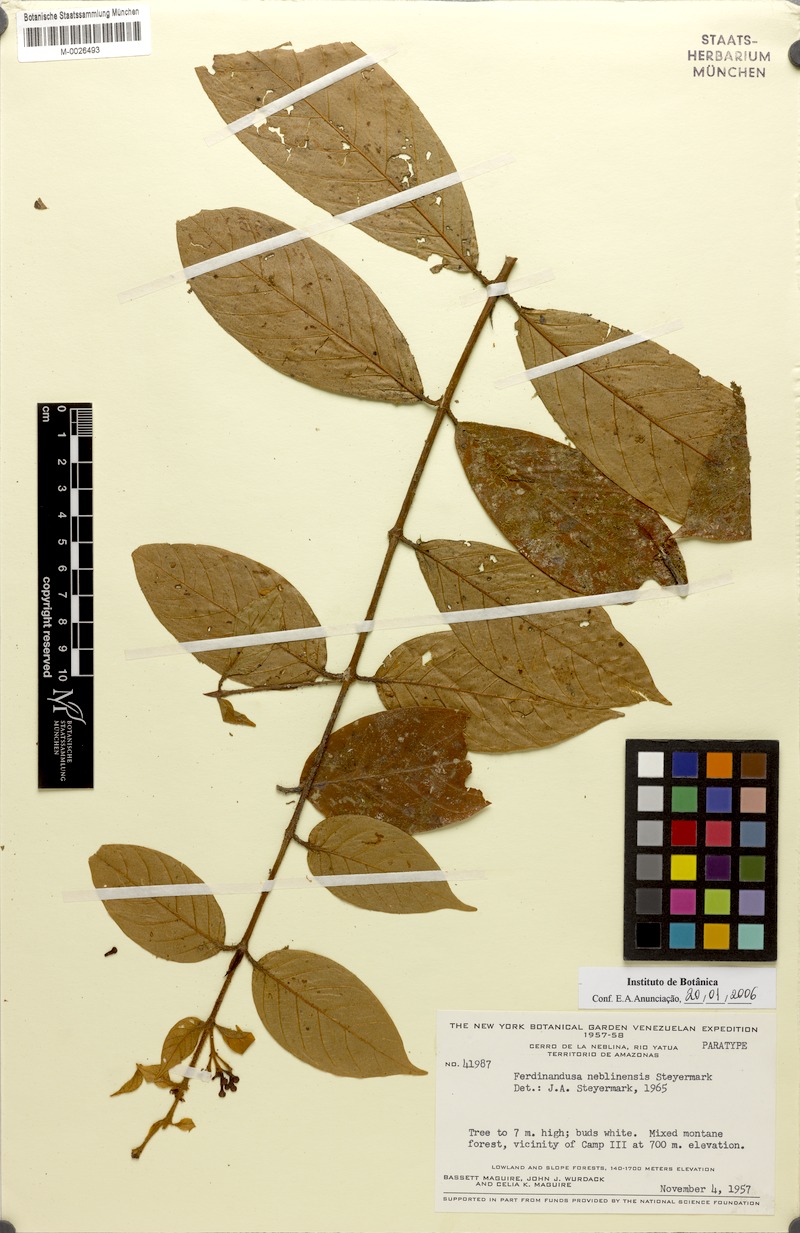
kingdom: Plantae
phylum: Tracheophyta
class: Magnoliopsida
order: Gentianales
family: Rubiaceae
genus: Ferdinandusa
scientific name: Ferdinandusa neblinensis
